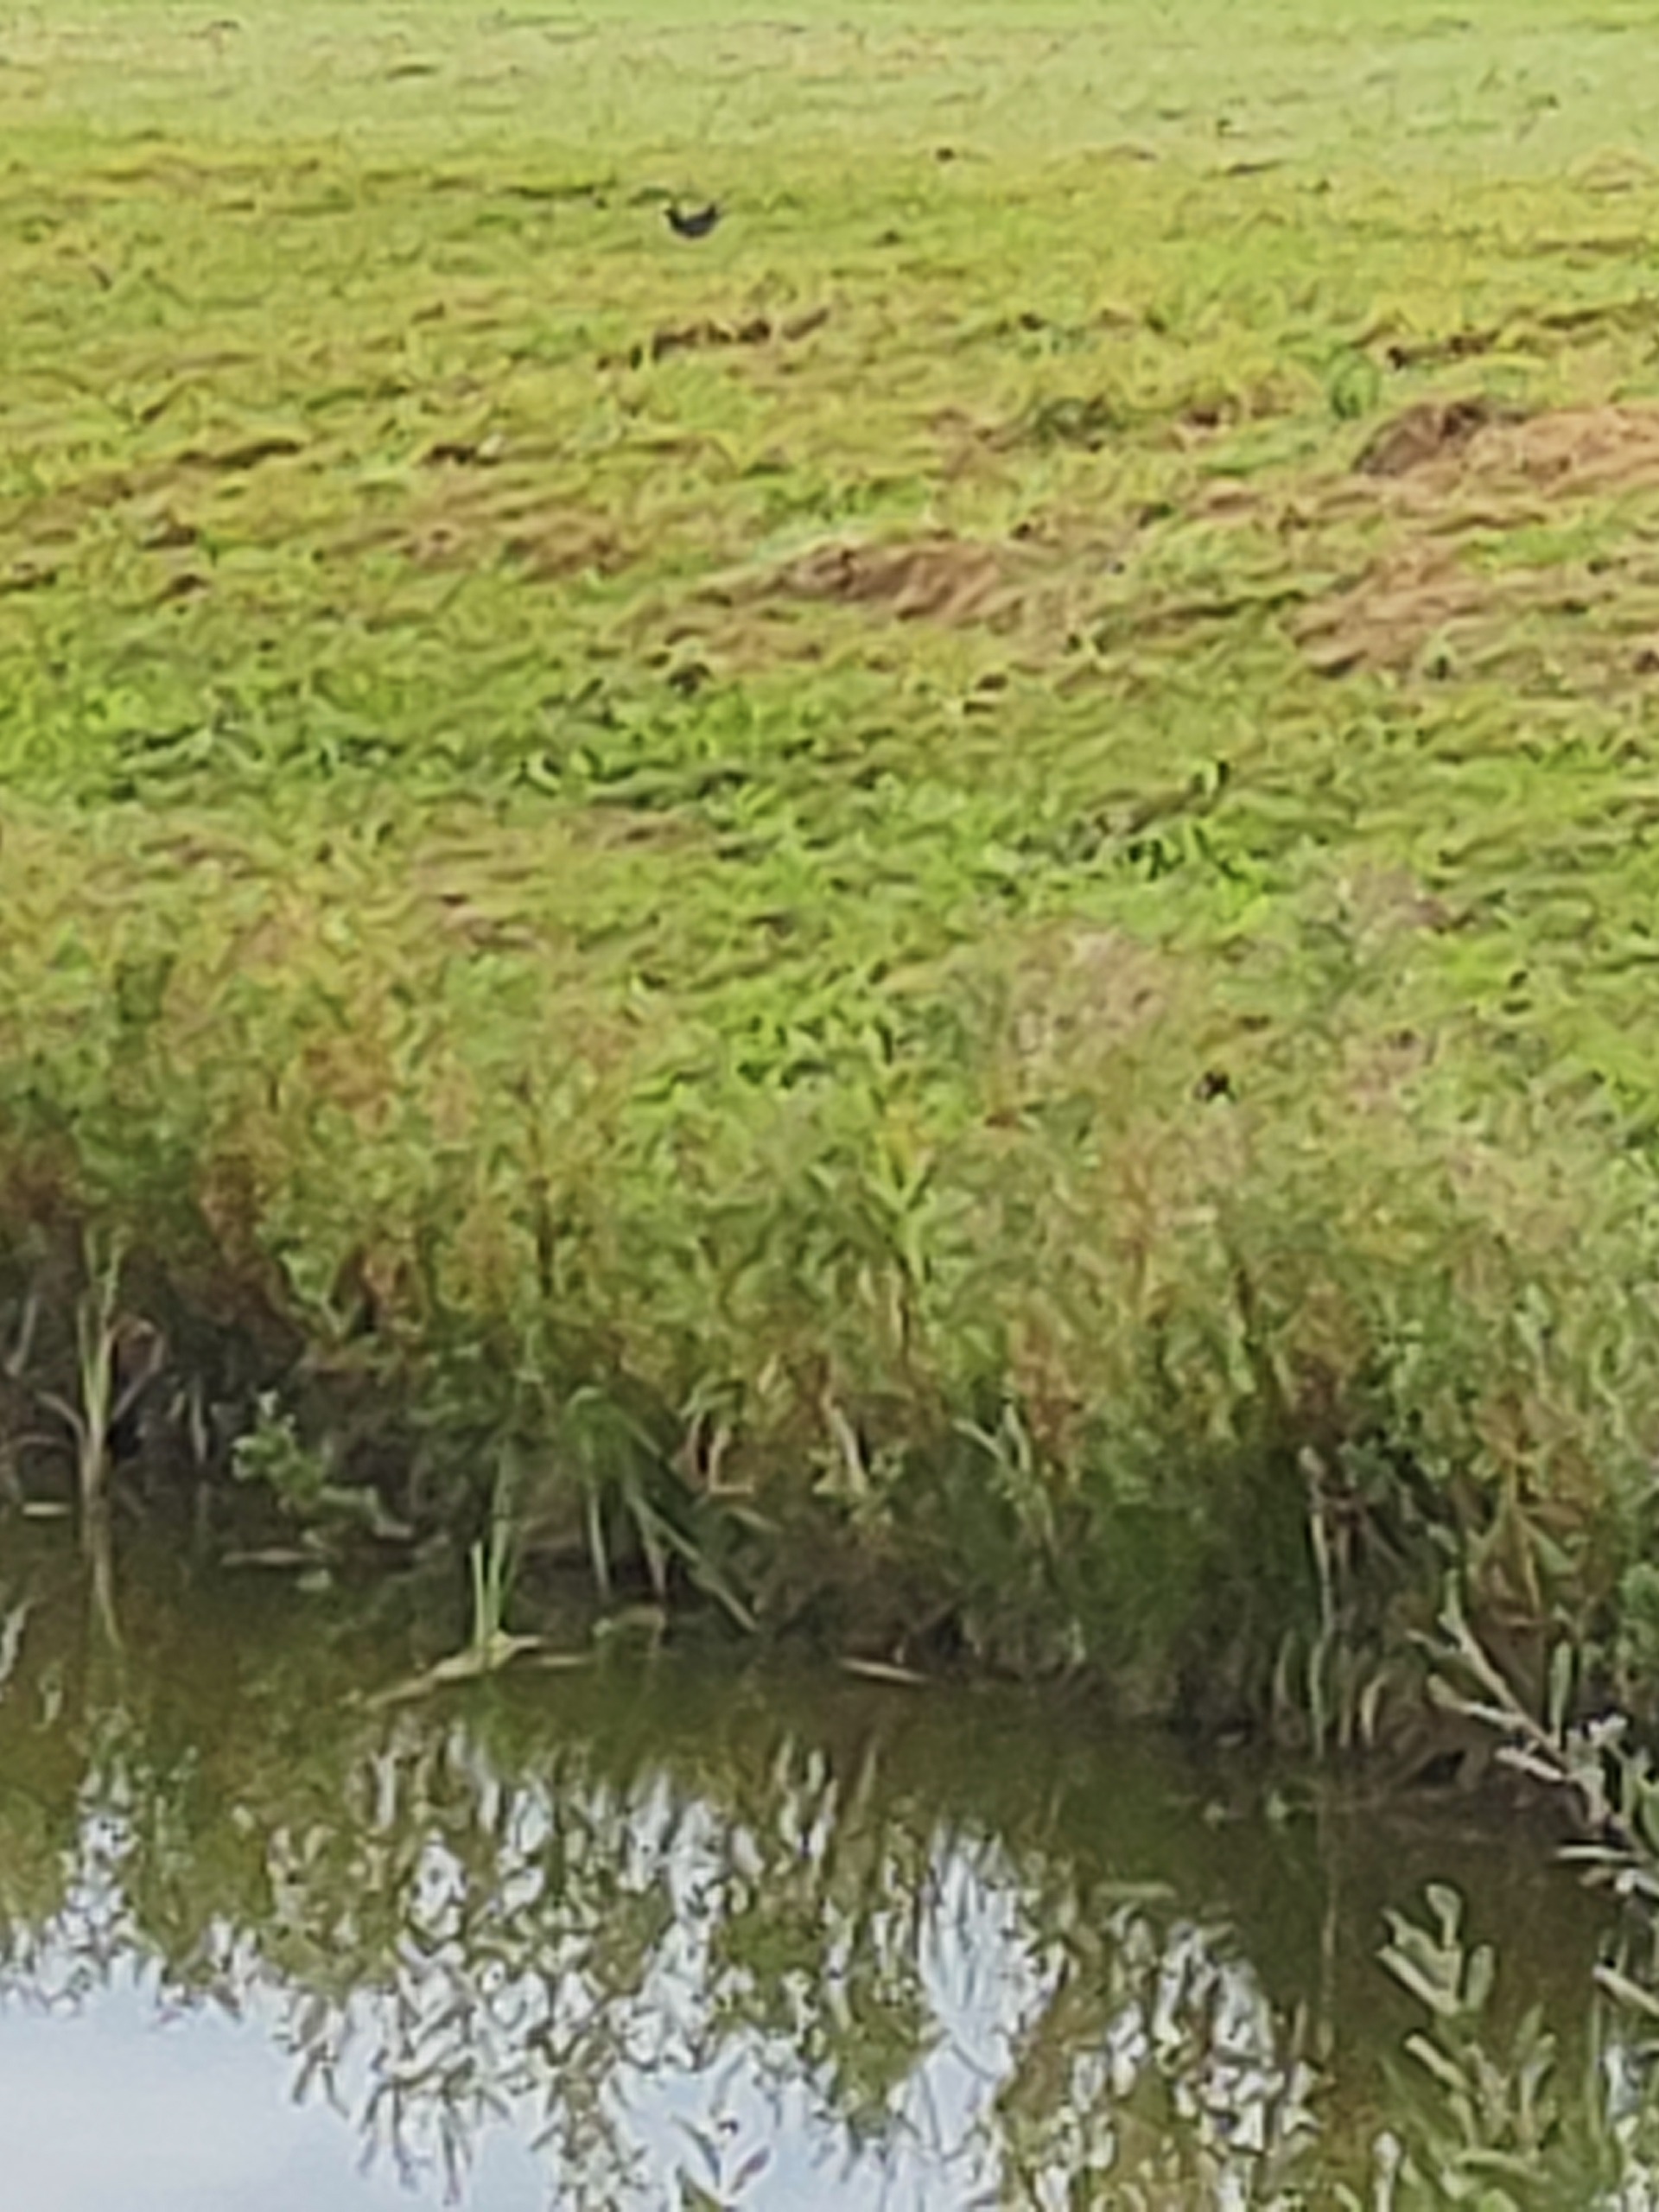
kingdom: Animalia
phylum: Chordata
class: Aves
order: Gruiformes
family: Rallidae
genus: Gallinula
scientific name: Gallinula chloropus
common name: Grønbenet rørhøne
